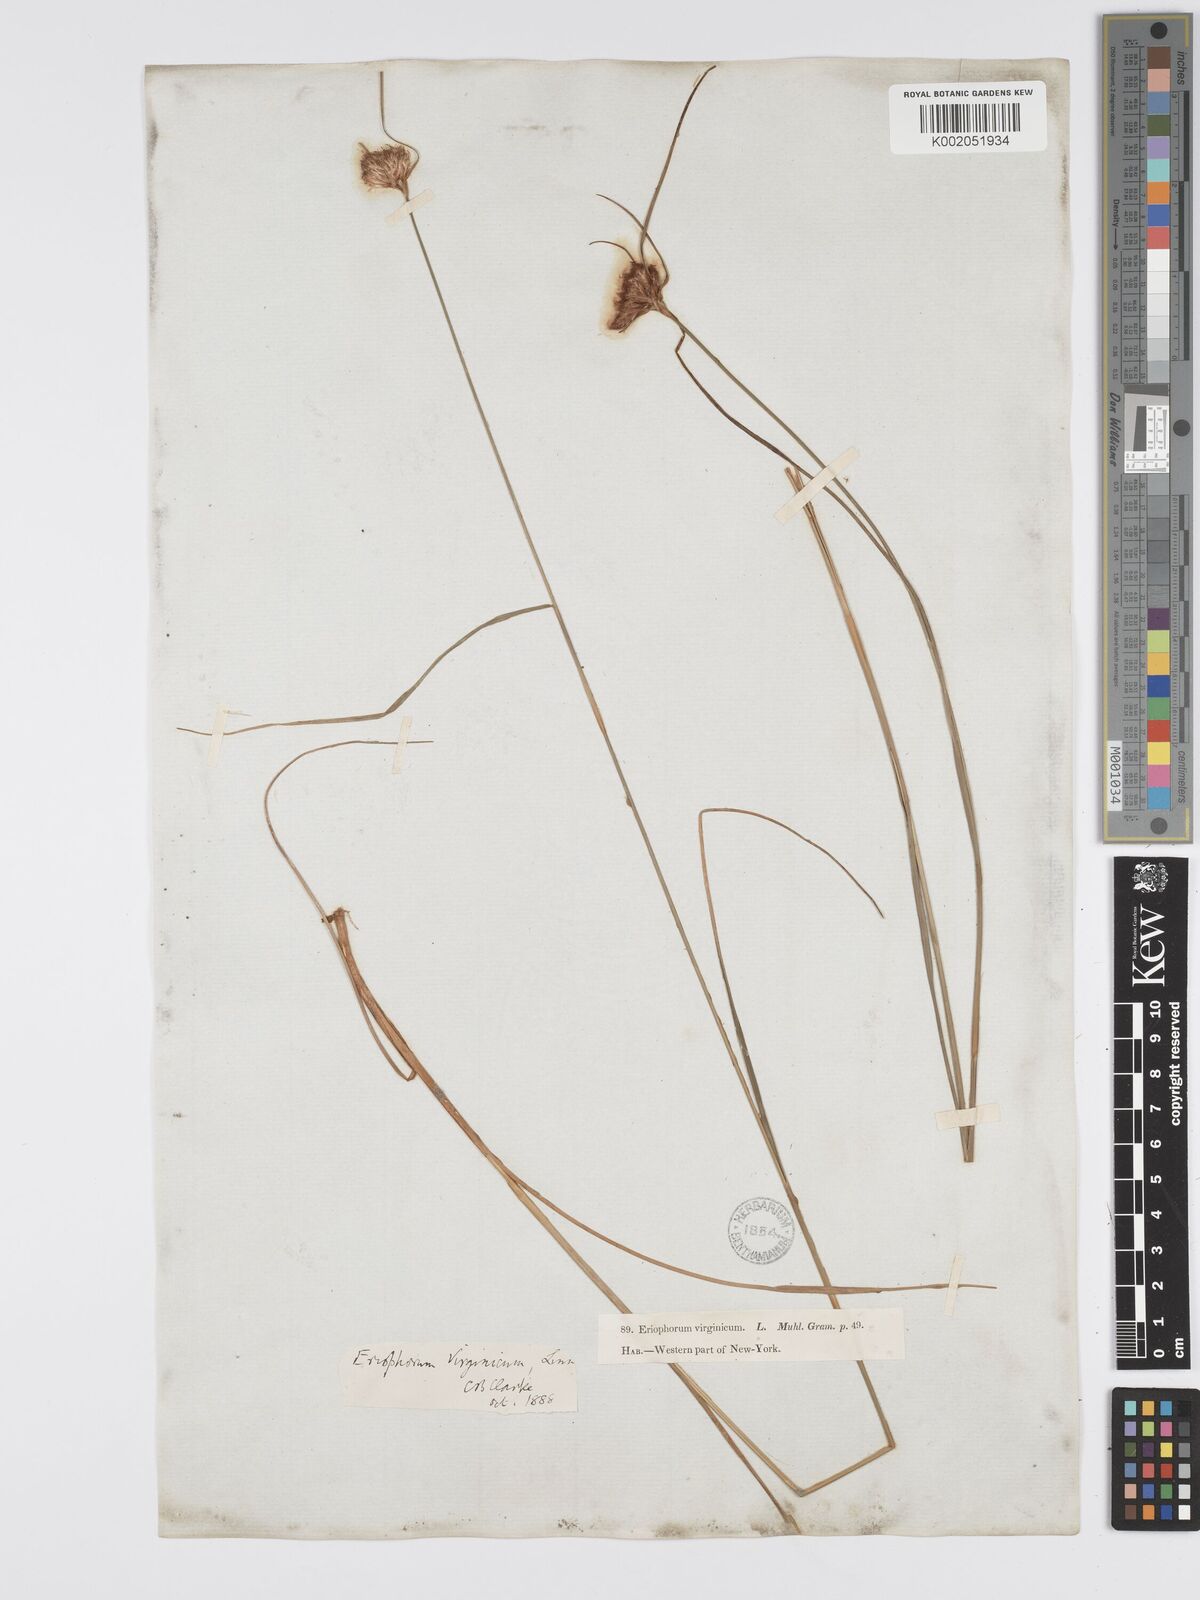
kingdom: Plantae
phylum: Tracheophyta
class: Liliopsida
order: Poales
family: Cyperaceae
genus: Eriophorum
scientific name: Eriophorum virginicum
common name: Tawny cottongrass
